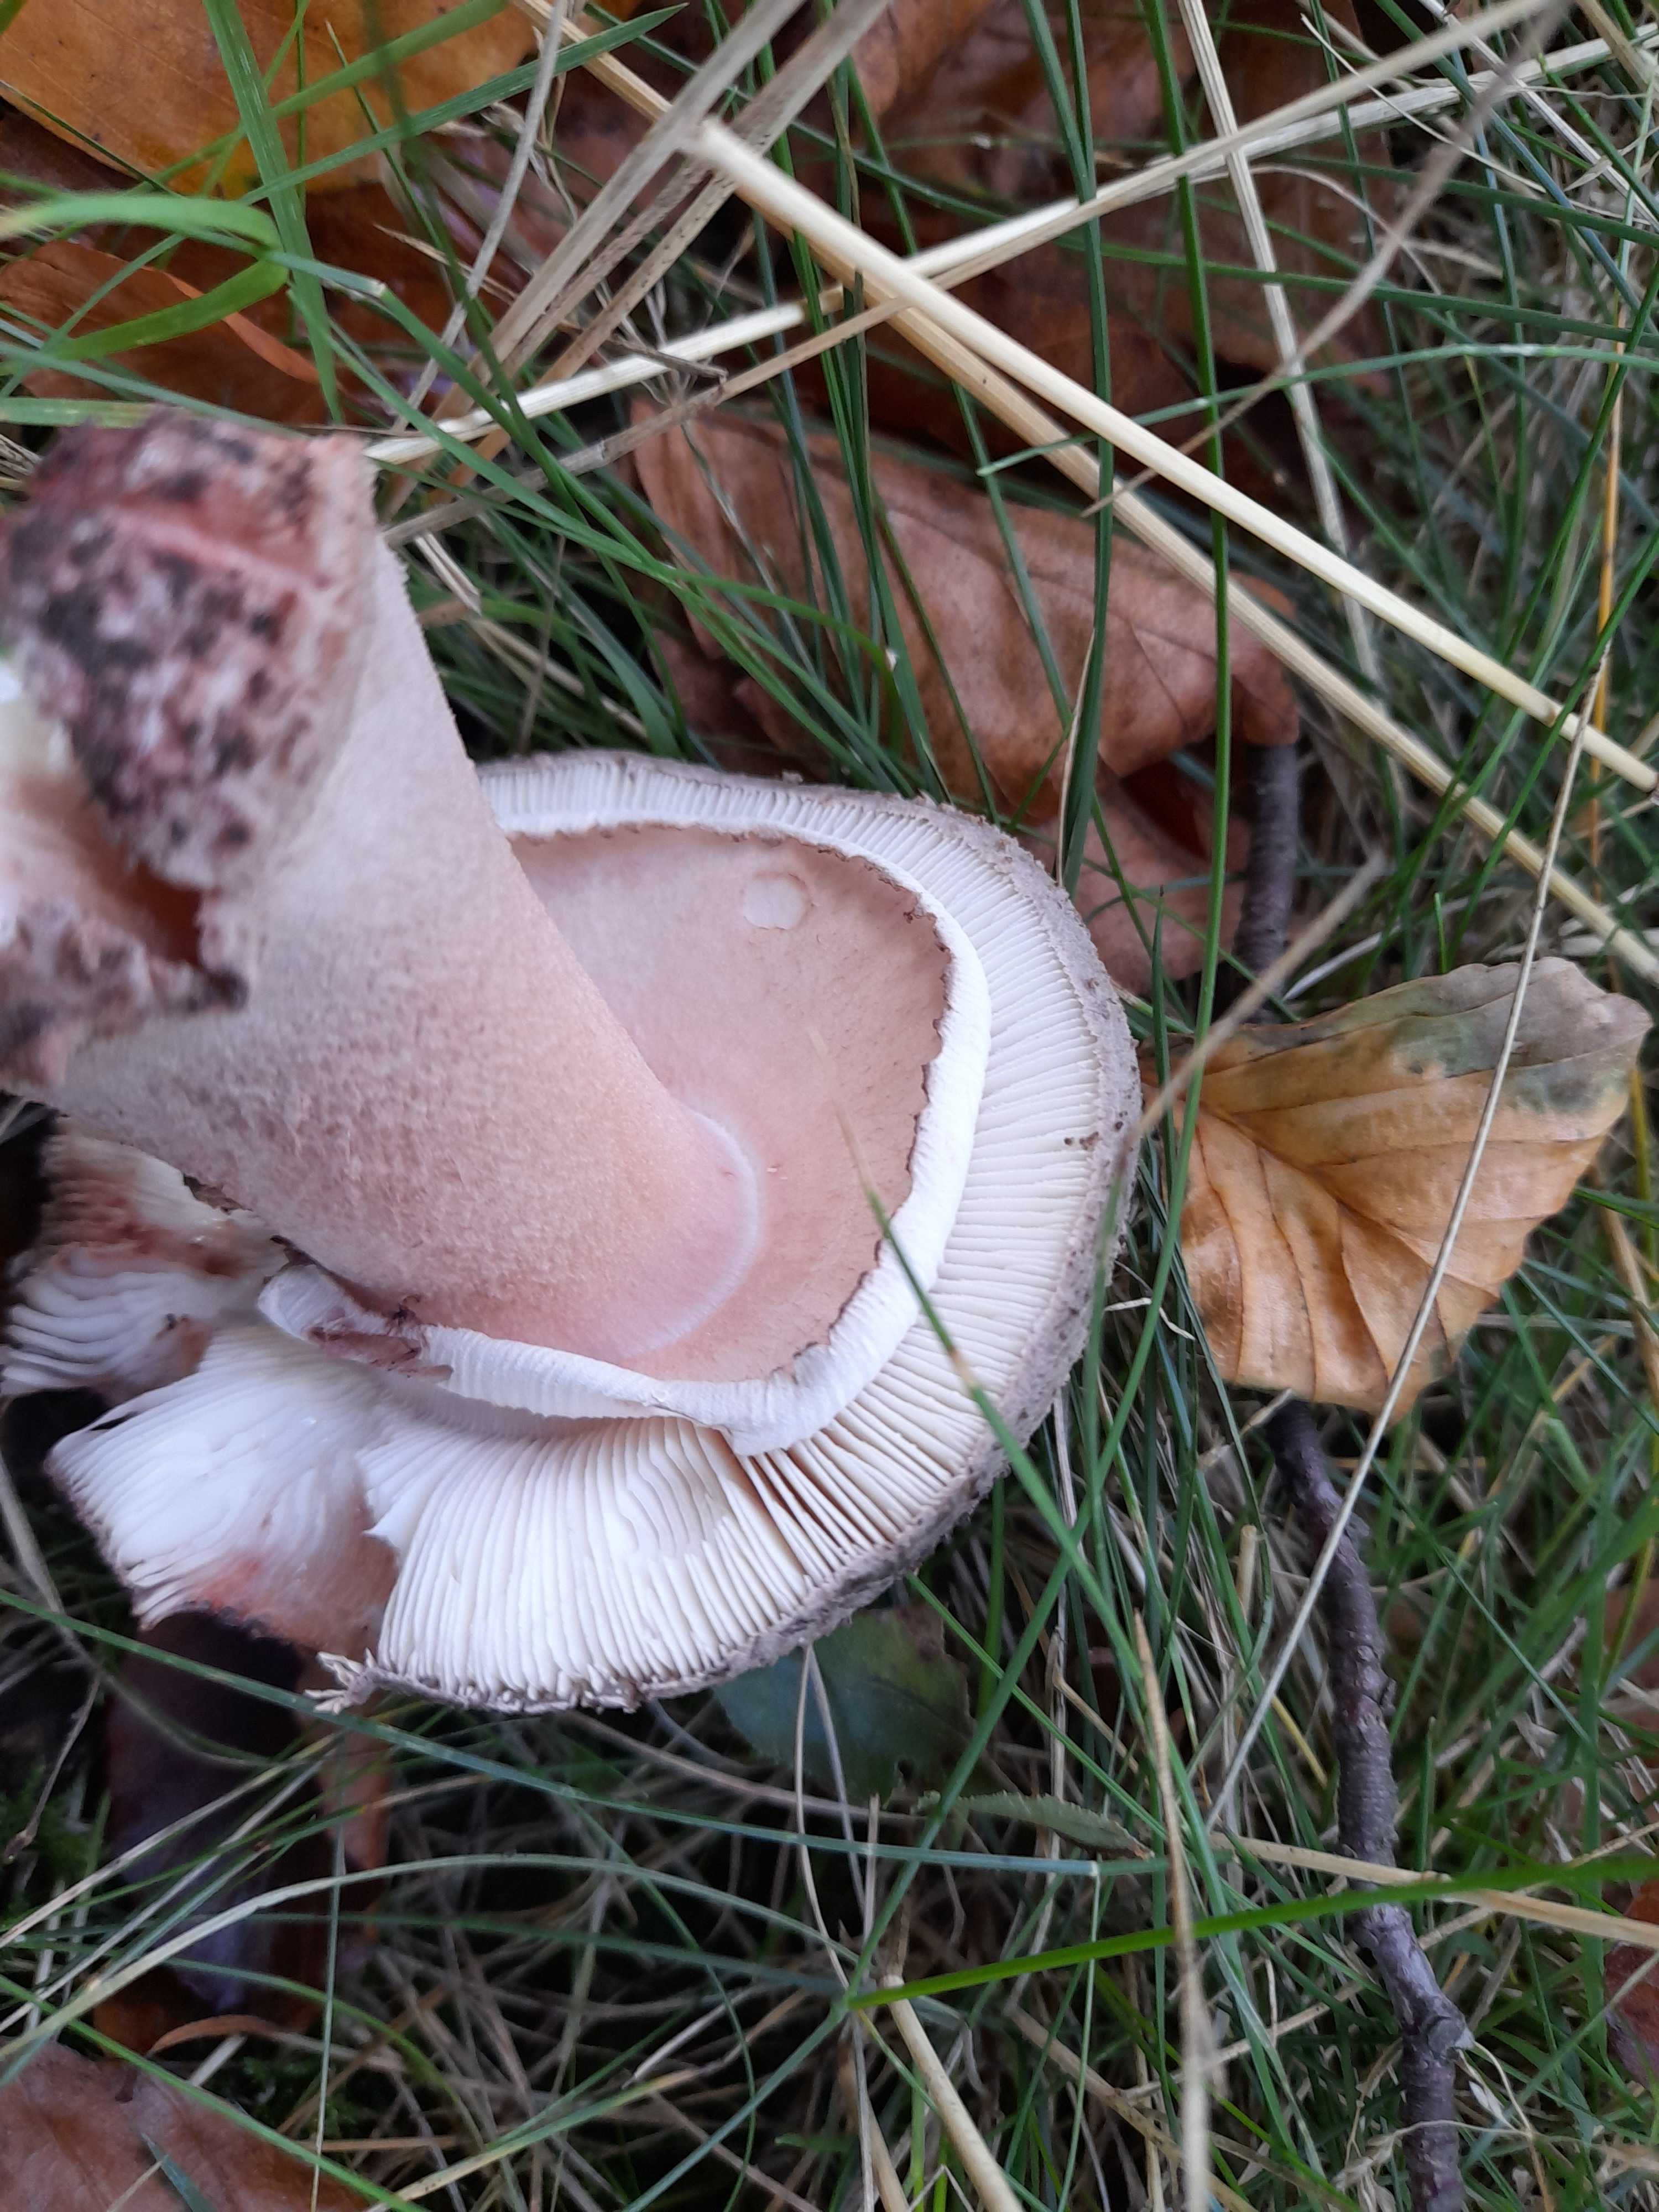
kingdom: Fungi
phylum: Basidiomycota
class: Agaricomycetes
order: Agaricales
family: Amanitaceae
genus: Amanita
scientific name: Amanita rubescens
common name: rødmende fluesvamp
